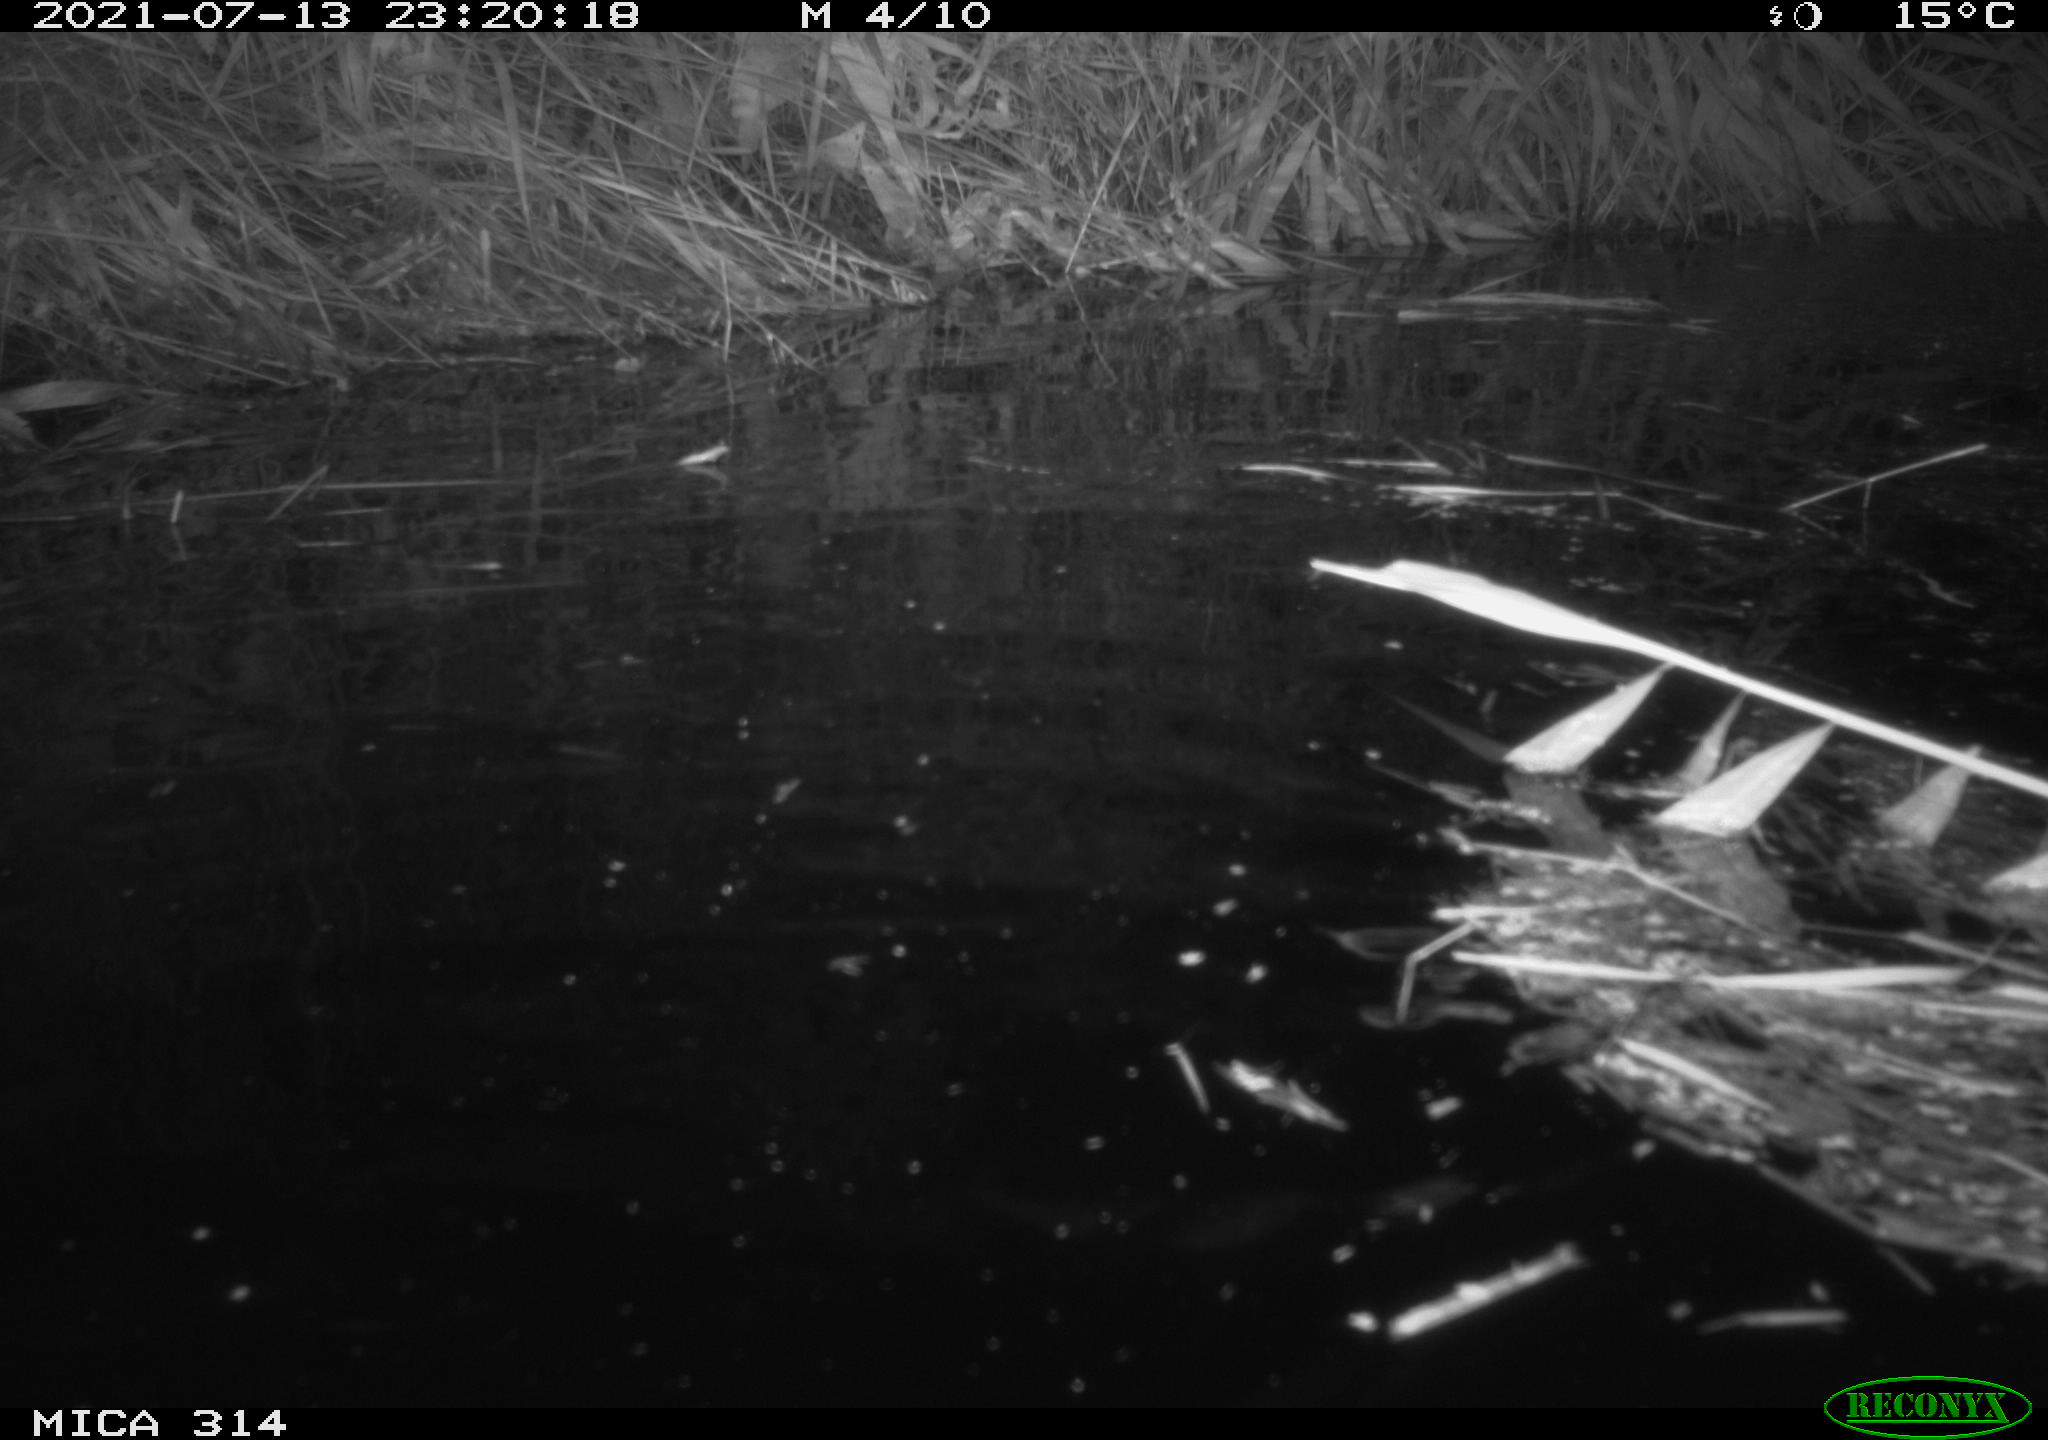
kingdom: Animalia
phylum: Chordata
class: Mammalia
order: Rodentia
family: Muridae
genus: Rattus
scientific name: Rattus norvegicus
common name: Brown rat
